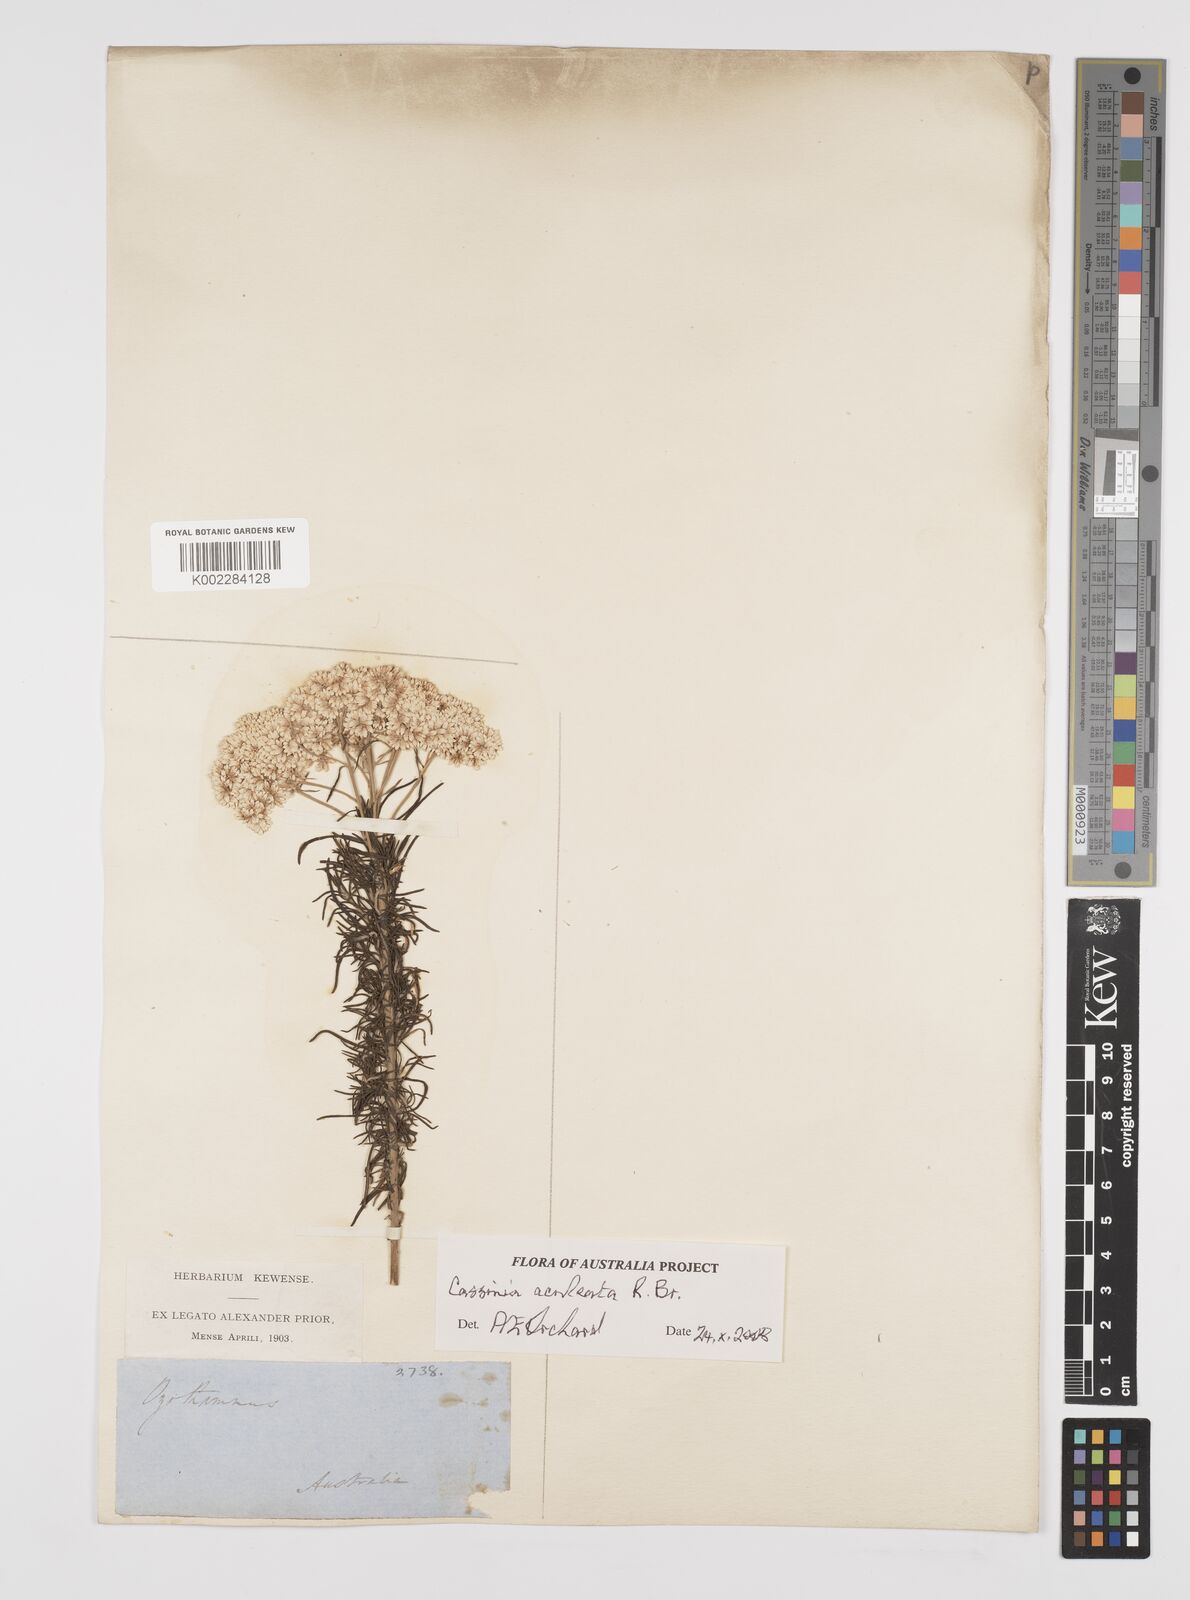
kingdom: Plantae
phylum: Tracheophyta
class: Magnoliopsida
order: Asterales
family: Asteraceae
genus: Cassinia
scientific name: Cassinia aculeata
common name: Australian tauhinu
